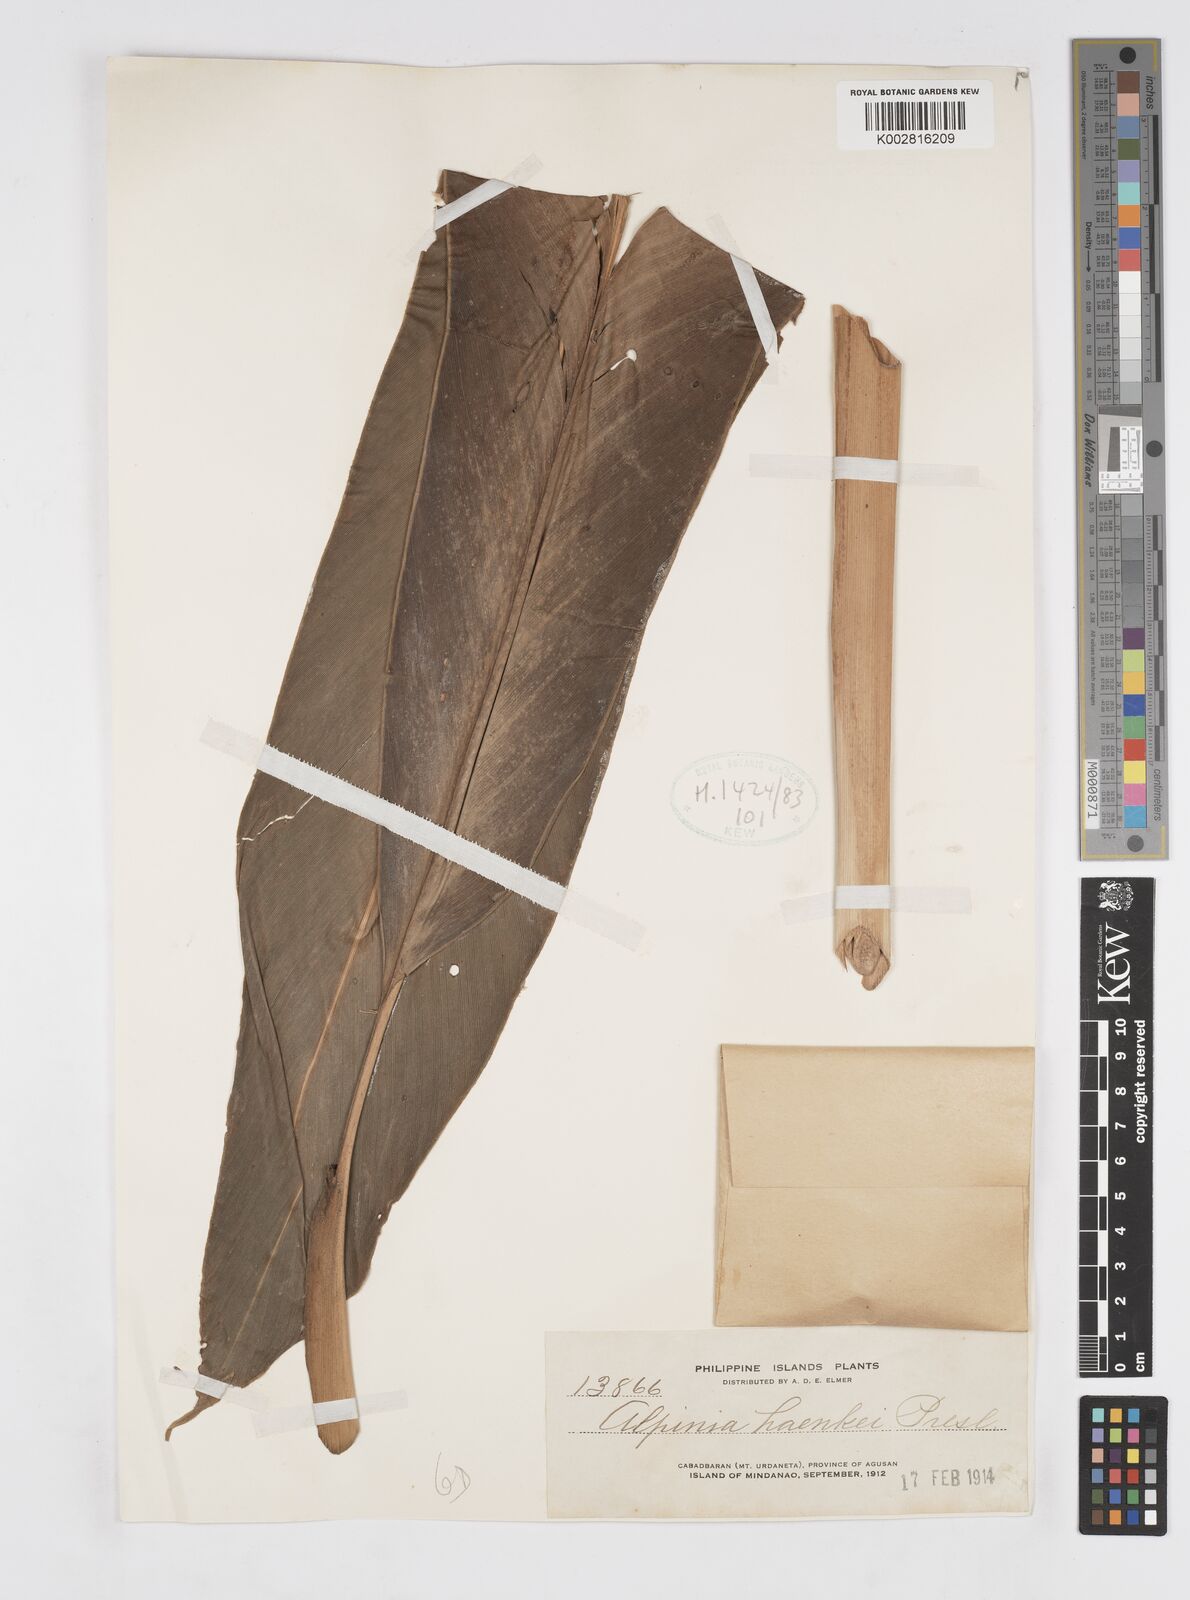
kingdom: Plantae
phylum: Tracheophyta
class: Liliopsida
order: Zingiberales
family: Zingiberaceae
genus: Alpinia
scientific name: Alpinia haenkei
